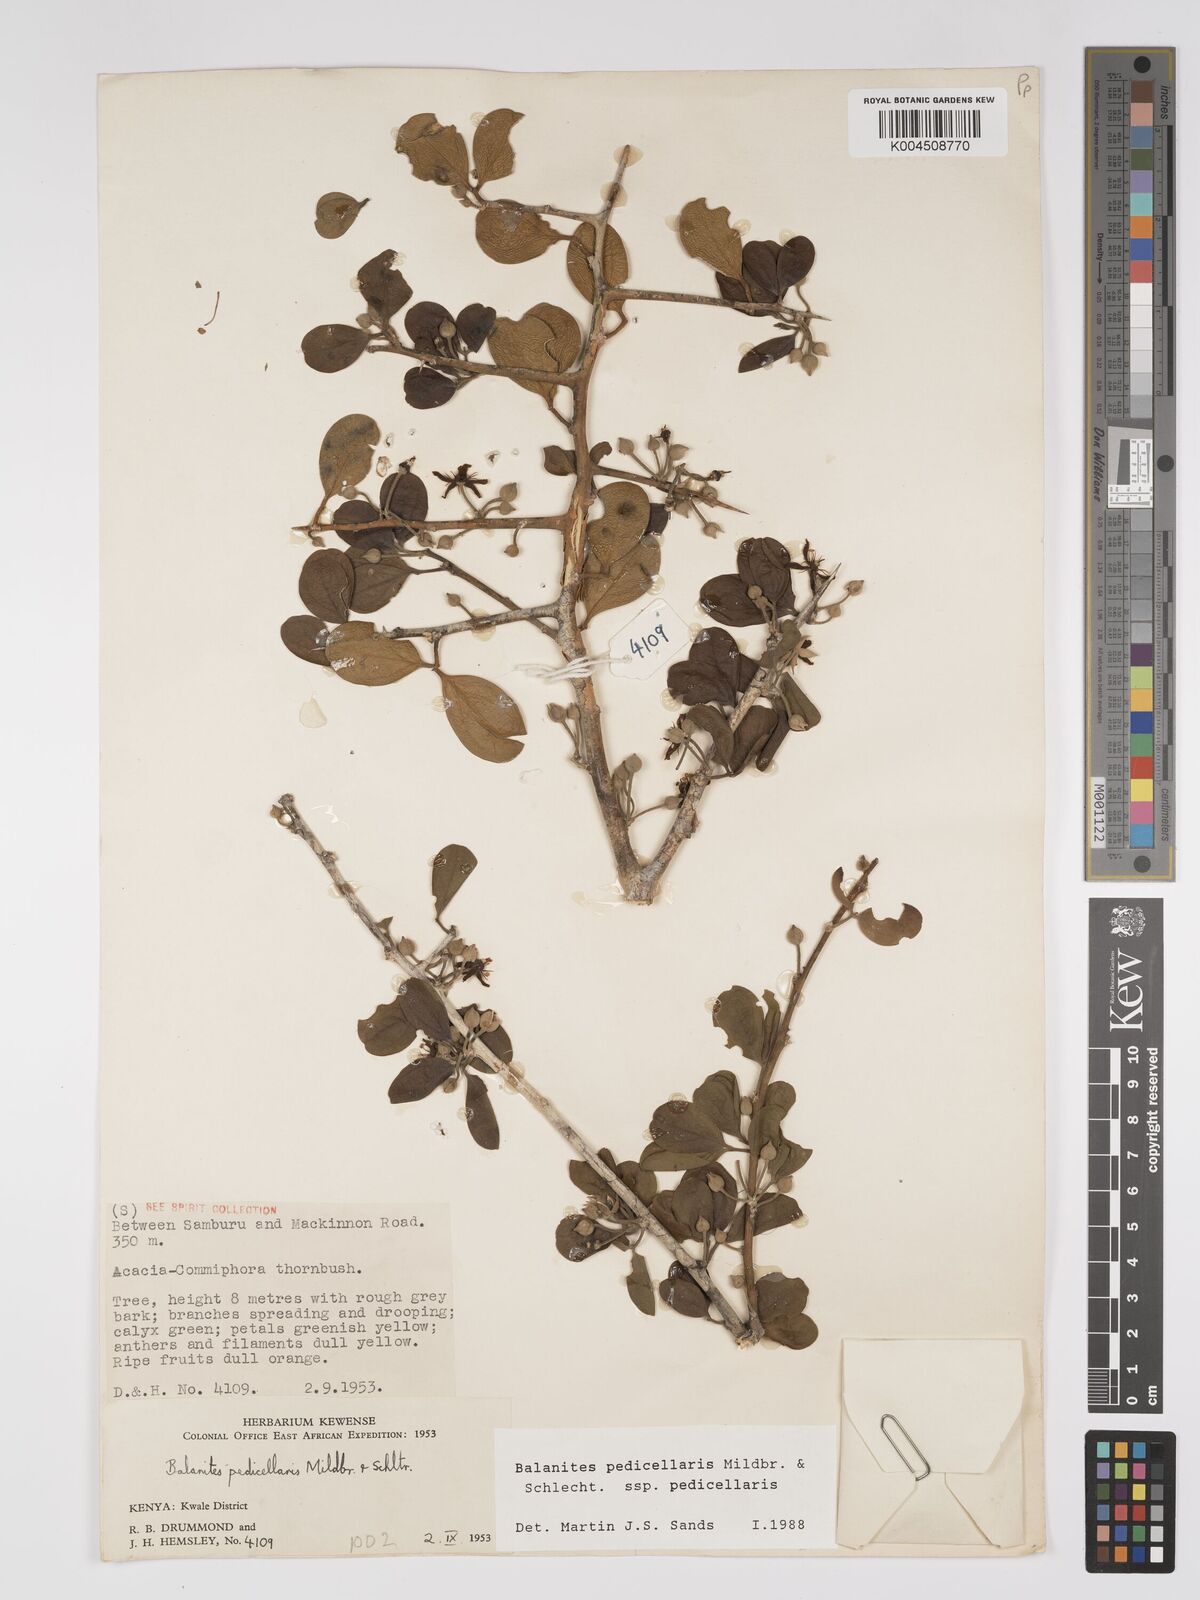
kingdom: Plantae
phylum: Tracheophyta
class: Magnoliopsida
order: Zygophyllales
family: Zygophyllaceae
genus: Balanites
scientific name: Balanites pedicellaris
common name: Small green-thorn
